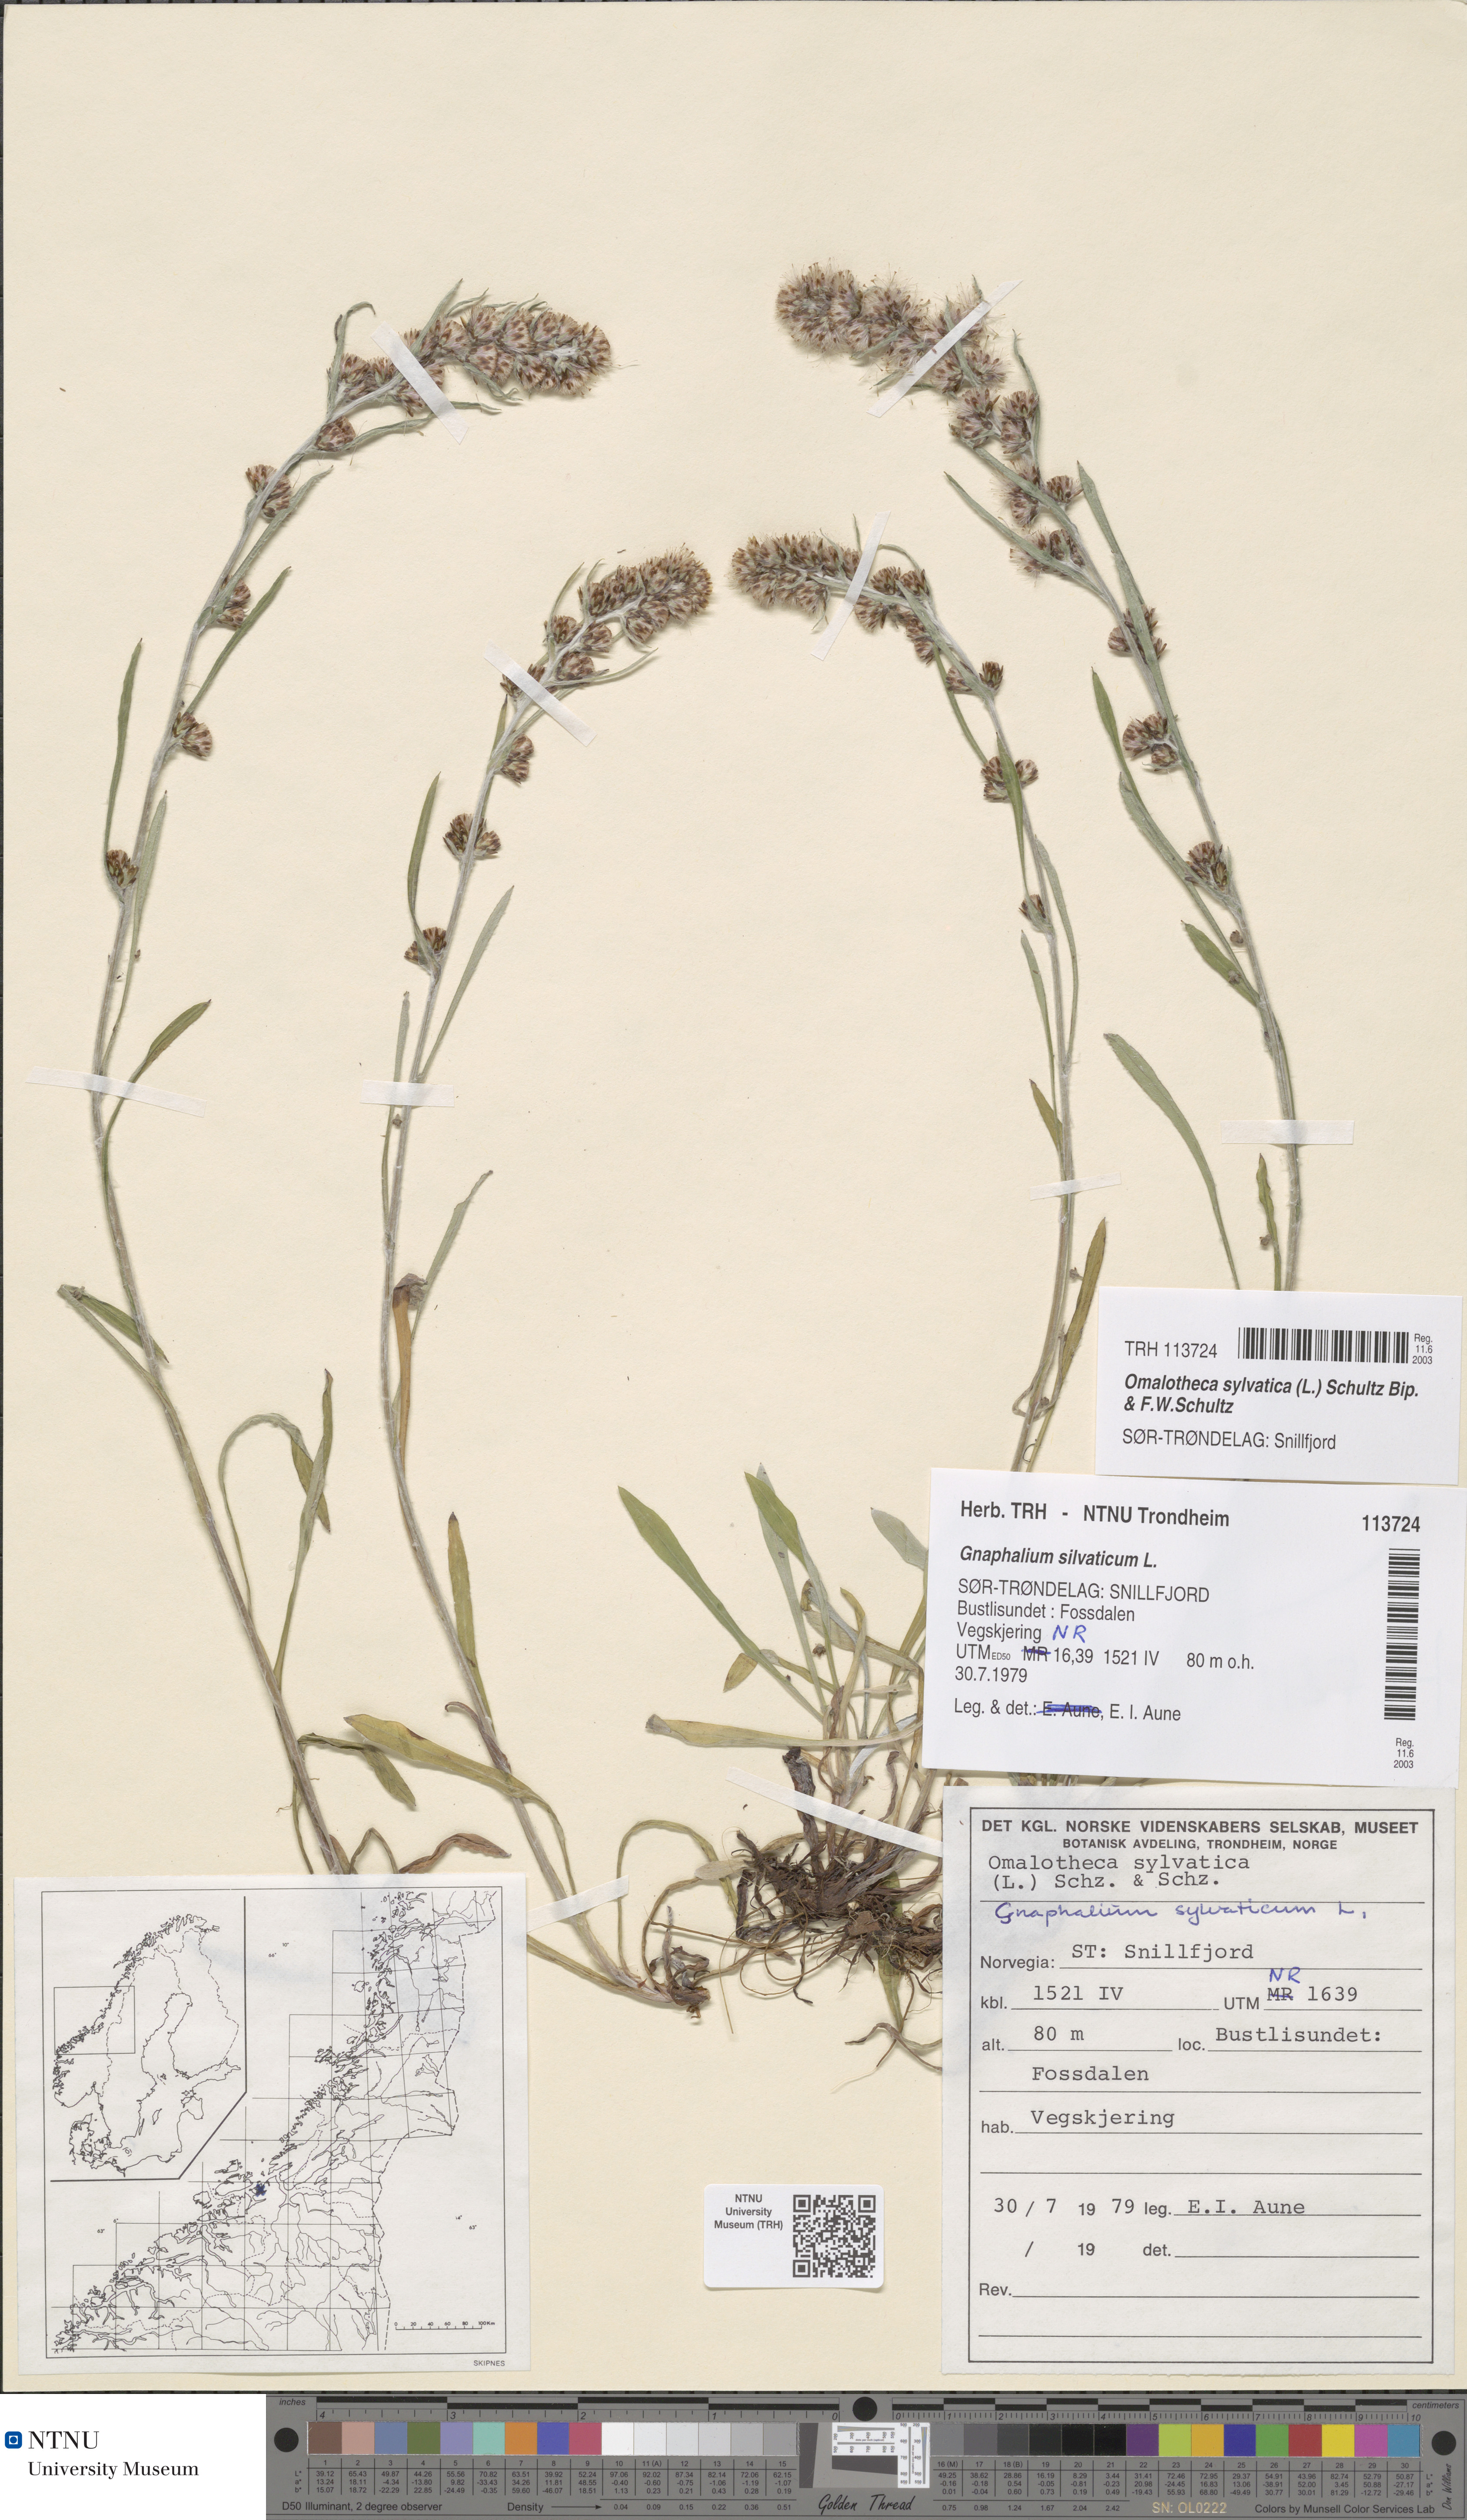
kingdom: Plantae
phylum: Tracheophyta
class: Magnoliopsida
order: Asterales
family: Asteraceae
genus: Omalotheca
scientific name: Omalotheca sylvatica
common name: Heath cudweed
